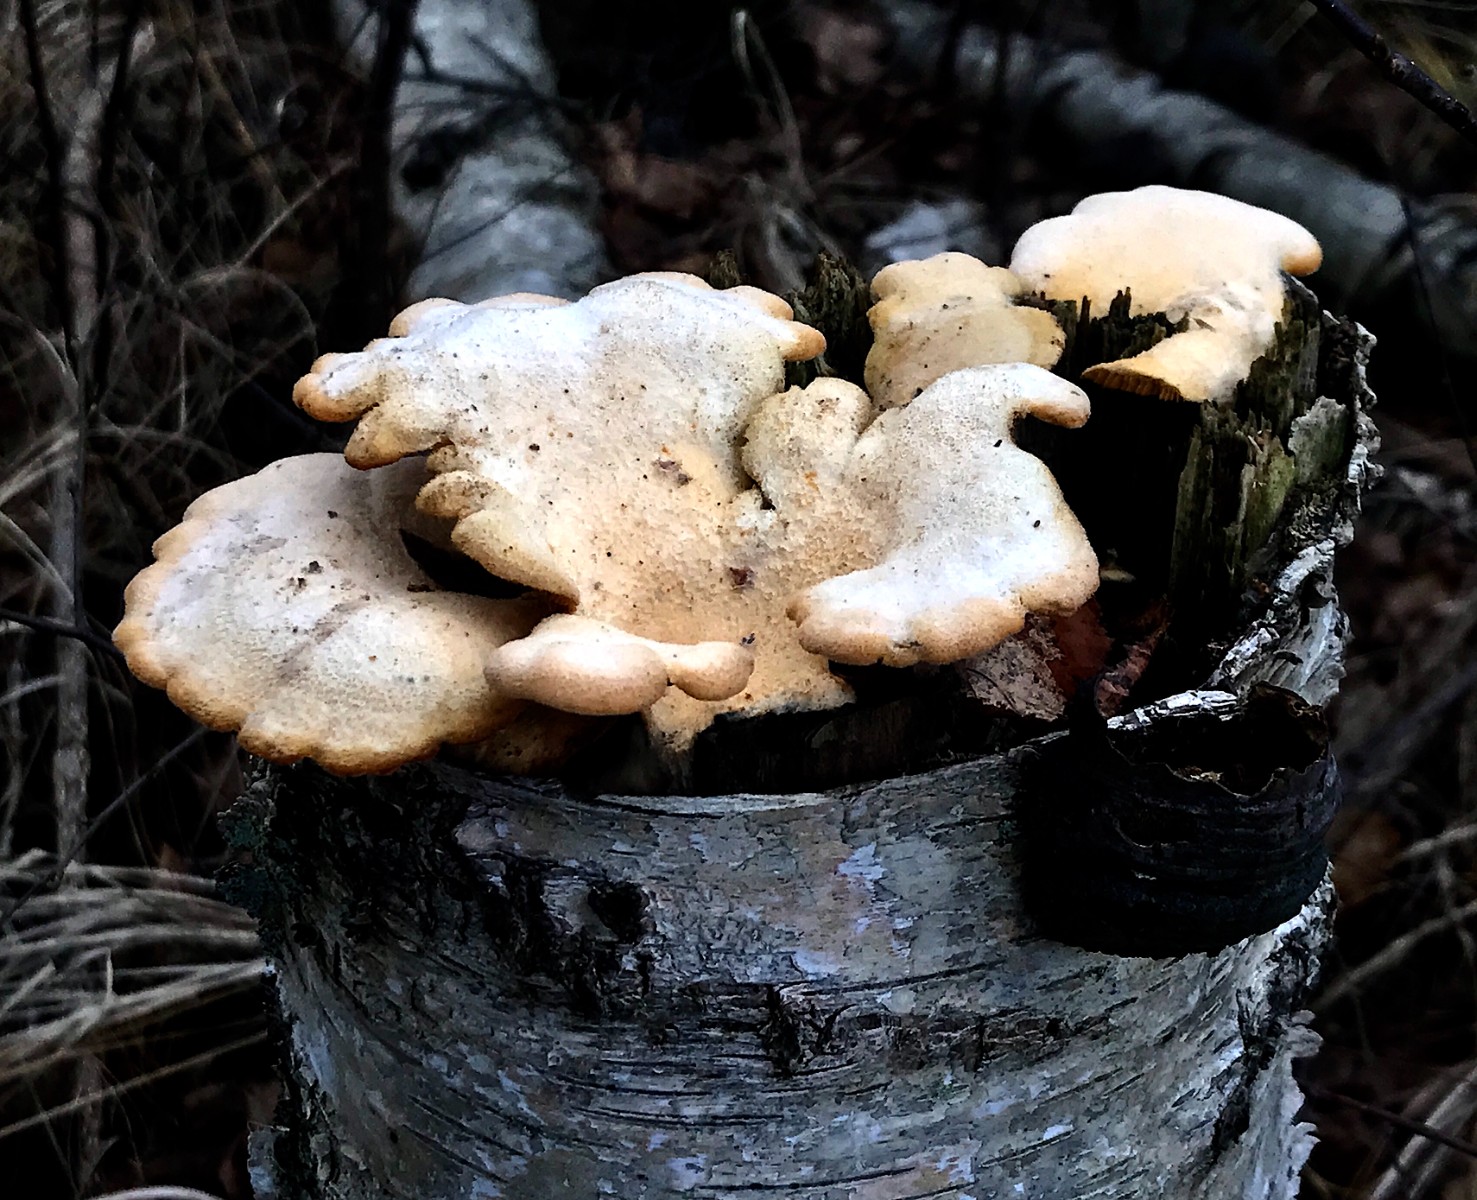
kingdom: Fungi
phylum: Basidiomycota
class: Agaricomycetes
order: Agaricales
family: Phyllotopsidaceae
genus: Phyllotopsis
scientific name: Phyllotopsis nidulans
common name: okkerblad
